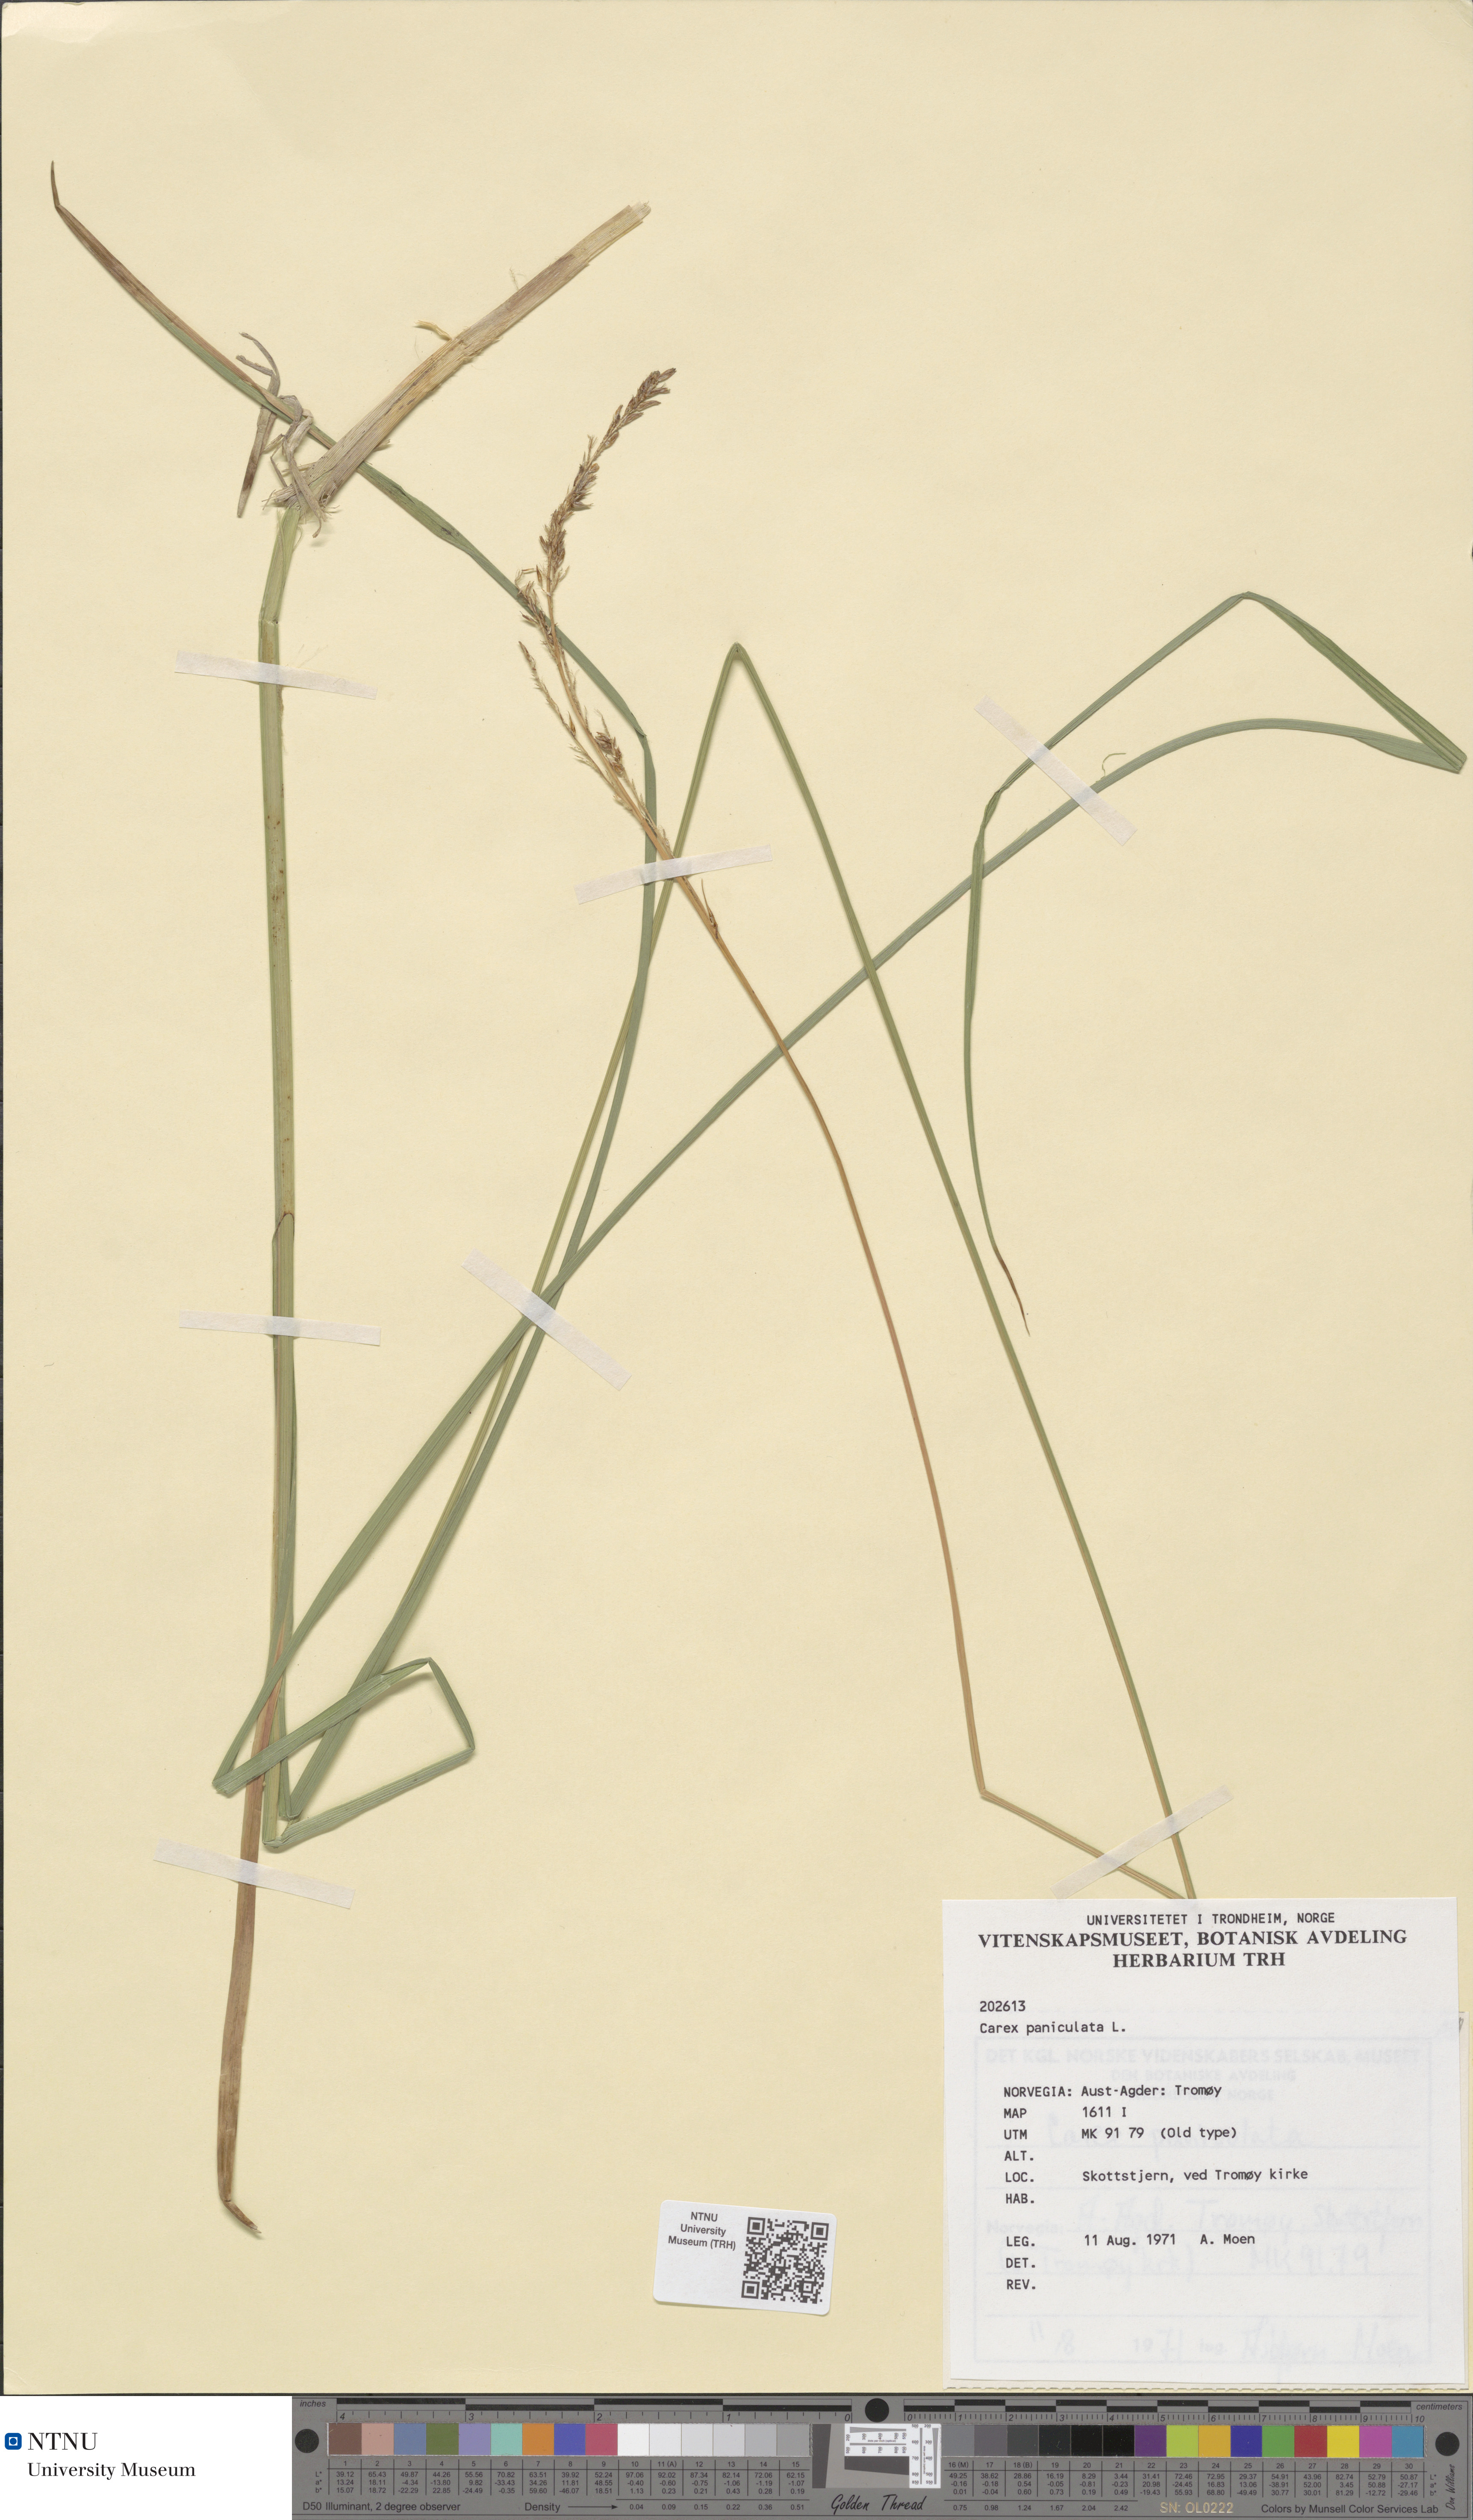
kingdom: Plantae
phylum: Tracheophyta
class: Liliopsida
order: Poales
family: Cyperaceae
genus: Carex
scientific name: Carex paniculata
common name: Greater tussock-sedge
